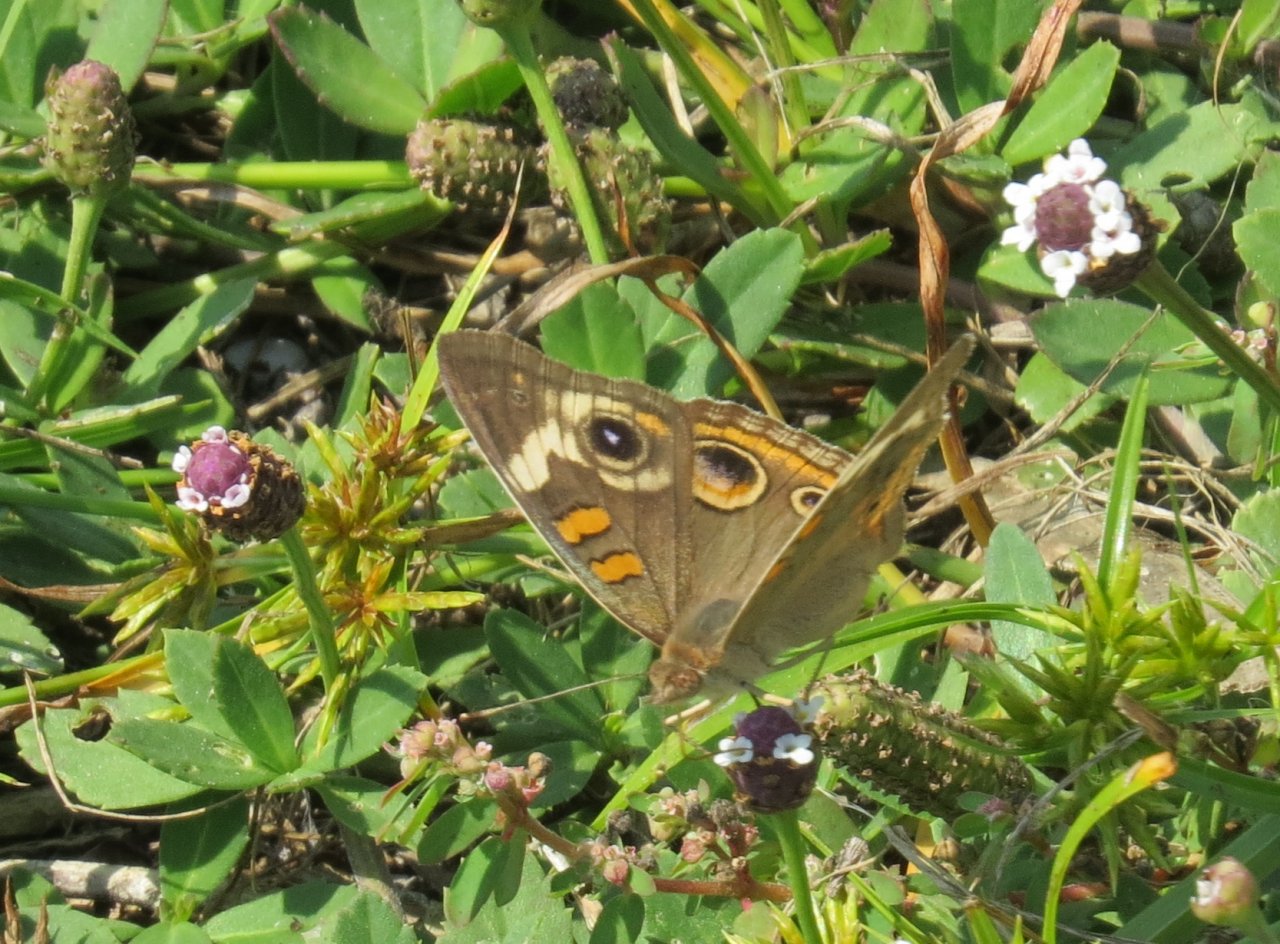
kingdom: Animalia
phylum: Arthropoda
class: Insecta
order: Lepidoptera
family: Nymphalidae
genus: Junonia
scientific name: Junonia coenia
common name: Common Buckeye
